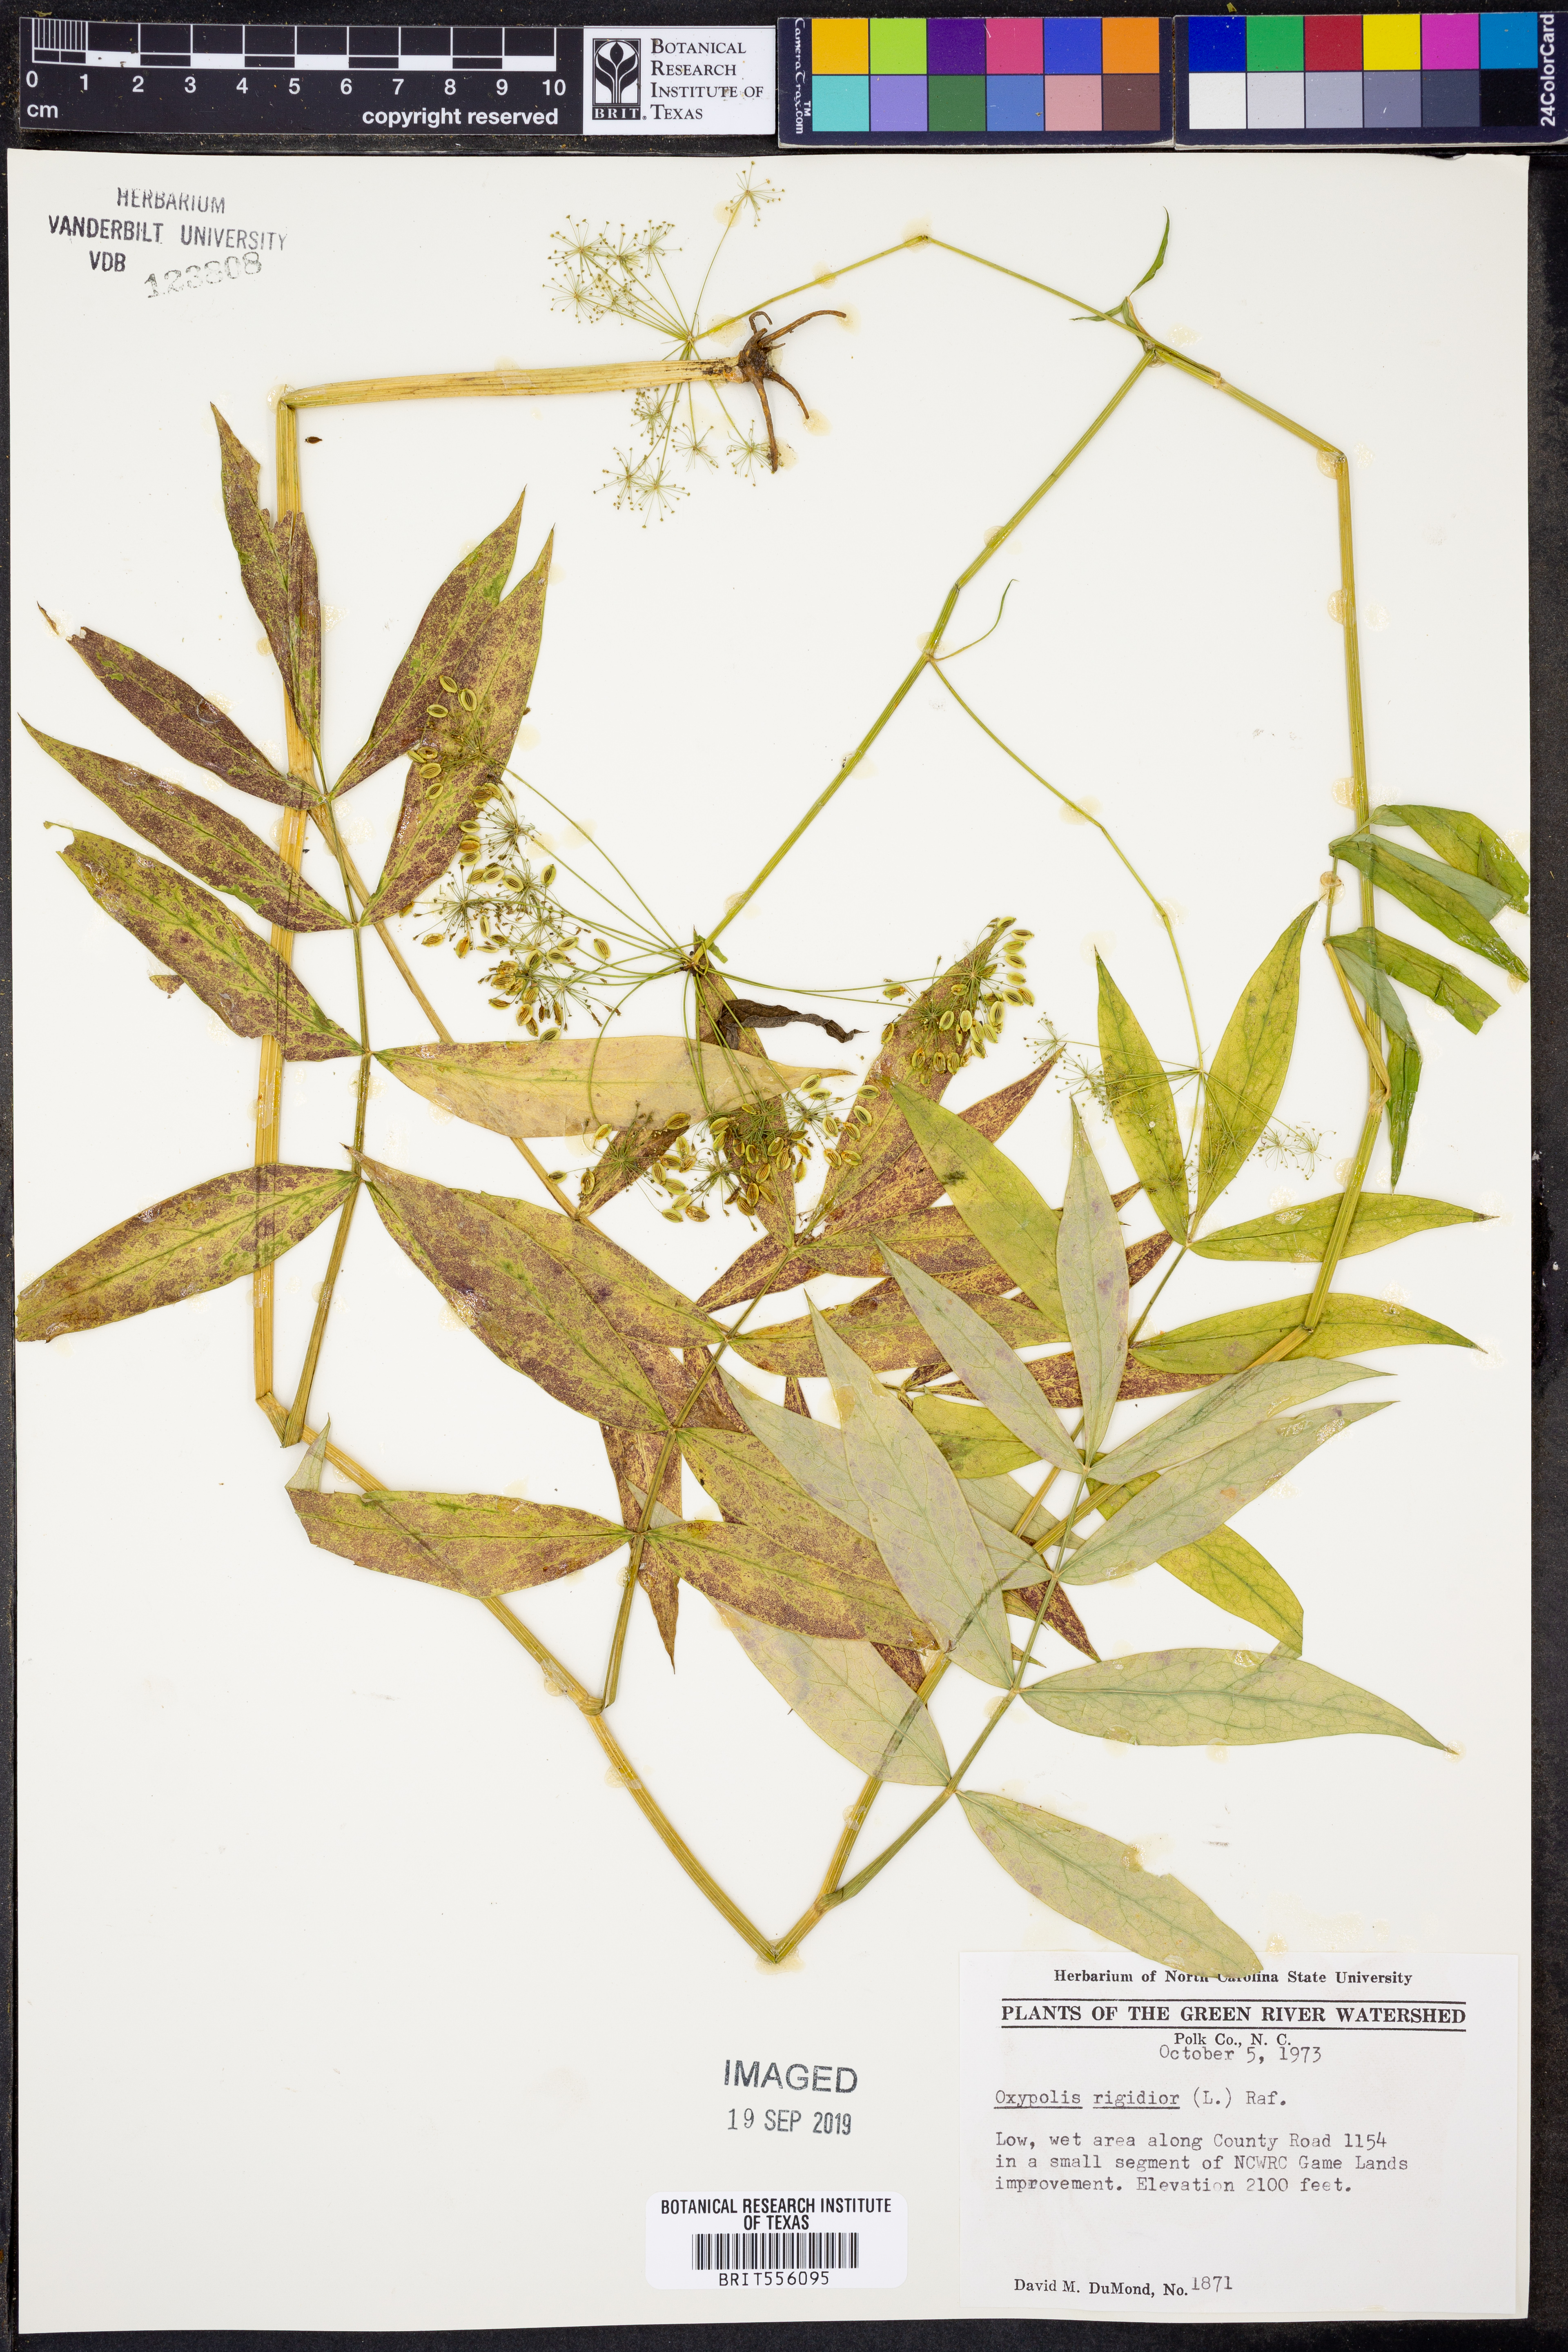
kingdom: Plantae
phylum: Tracheophyta
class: Magnoliopsida
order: Apiales
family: Apiaceae
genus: Oxypolis
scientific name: Oxypolis rigidior
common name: Cowbane
